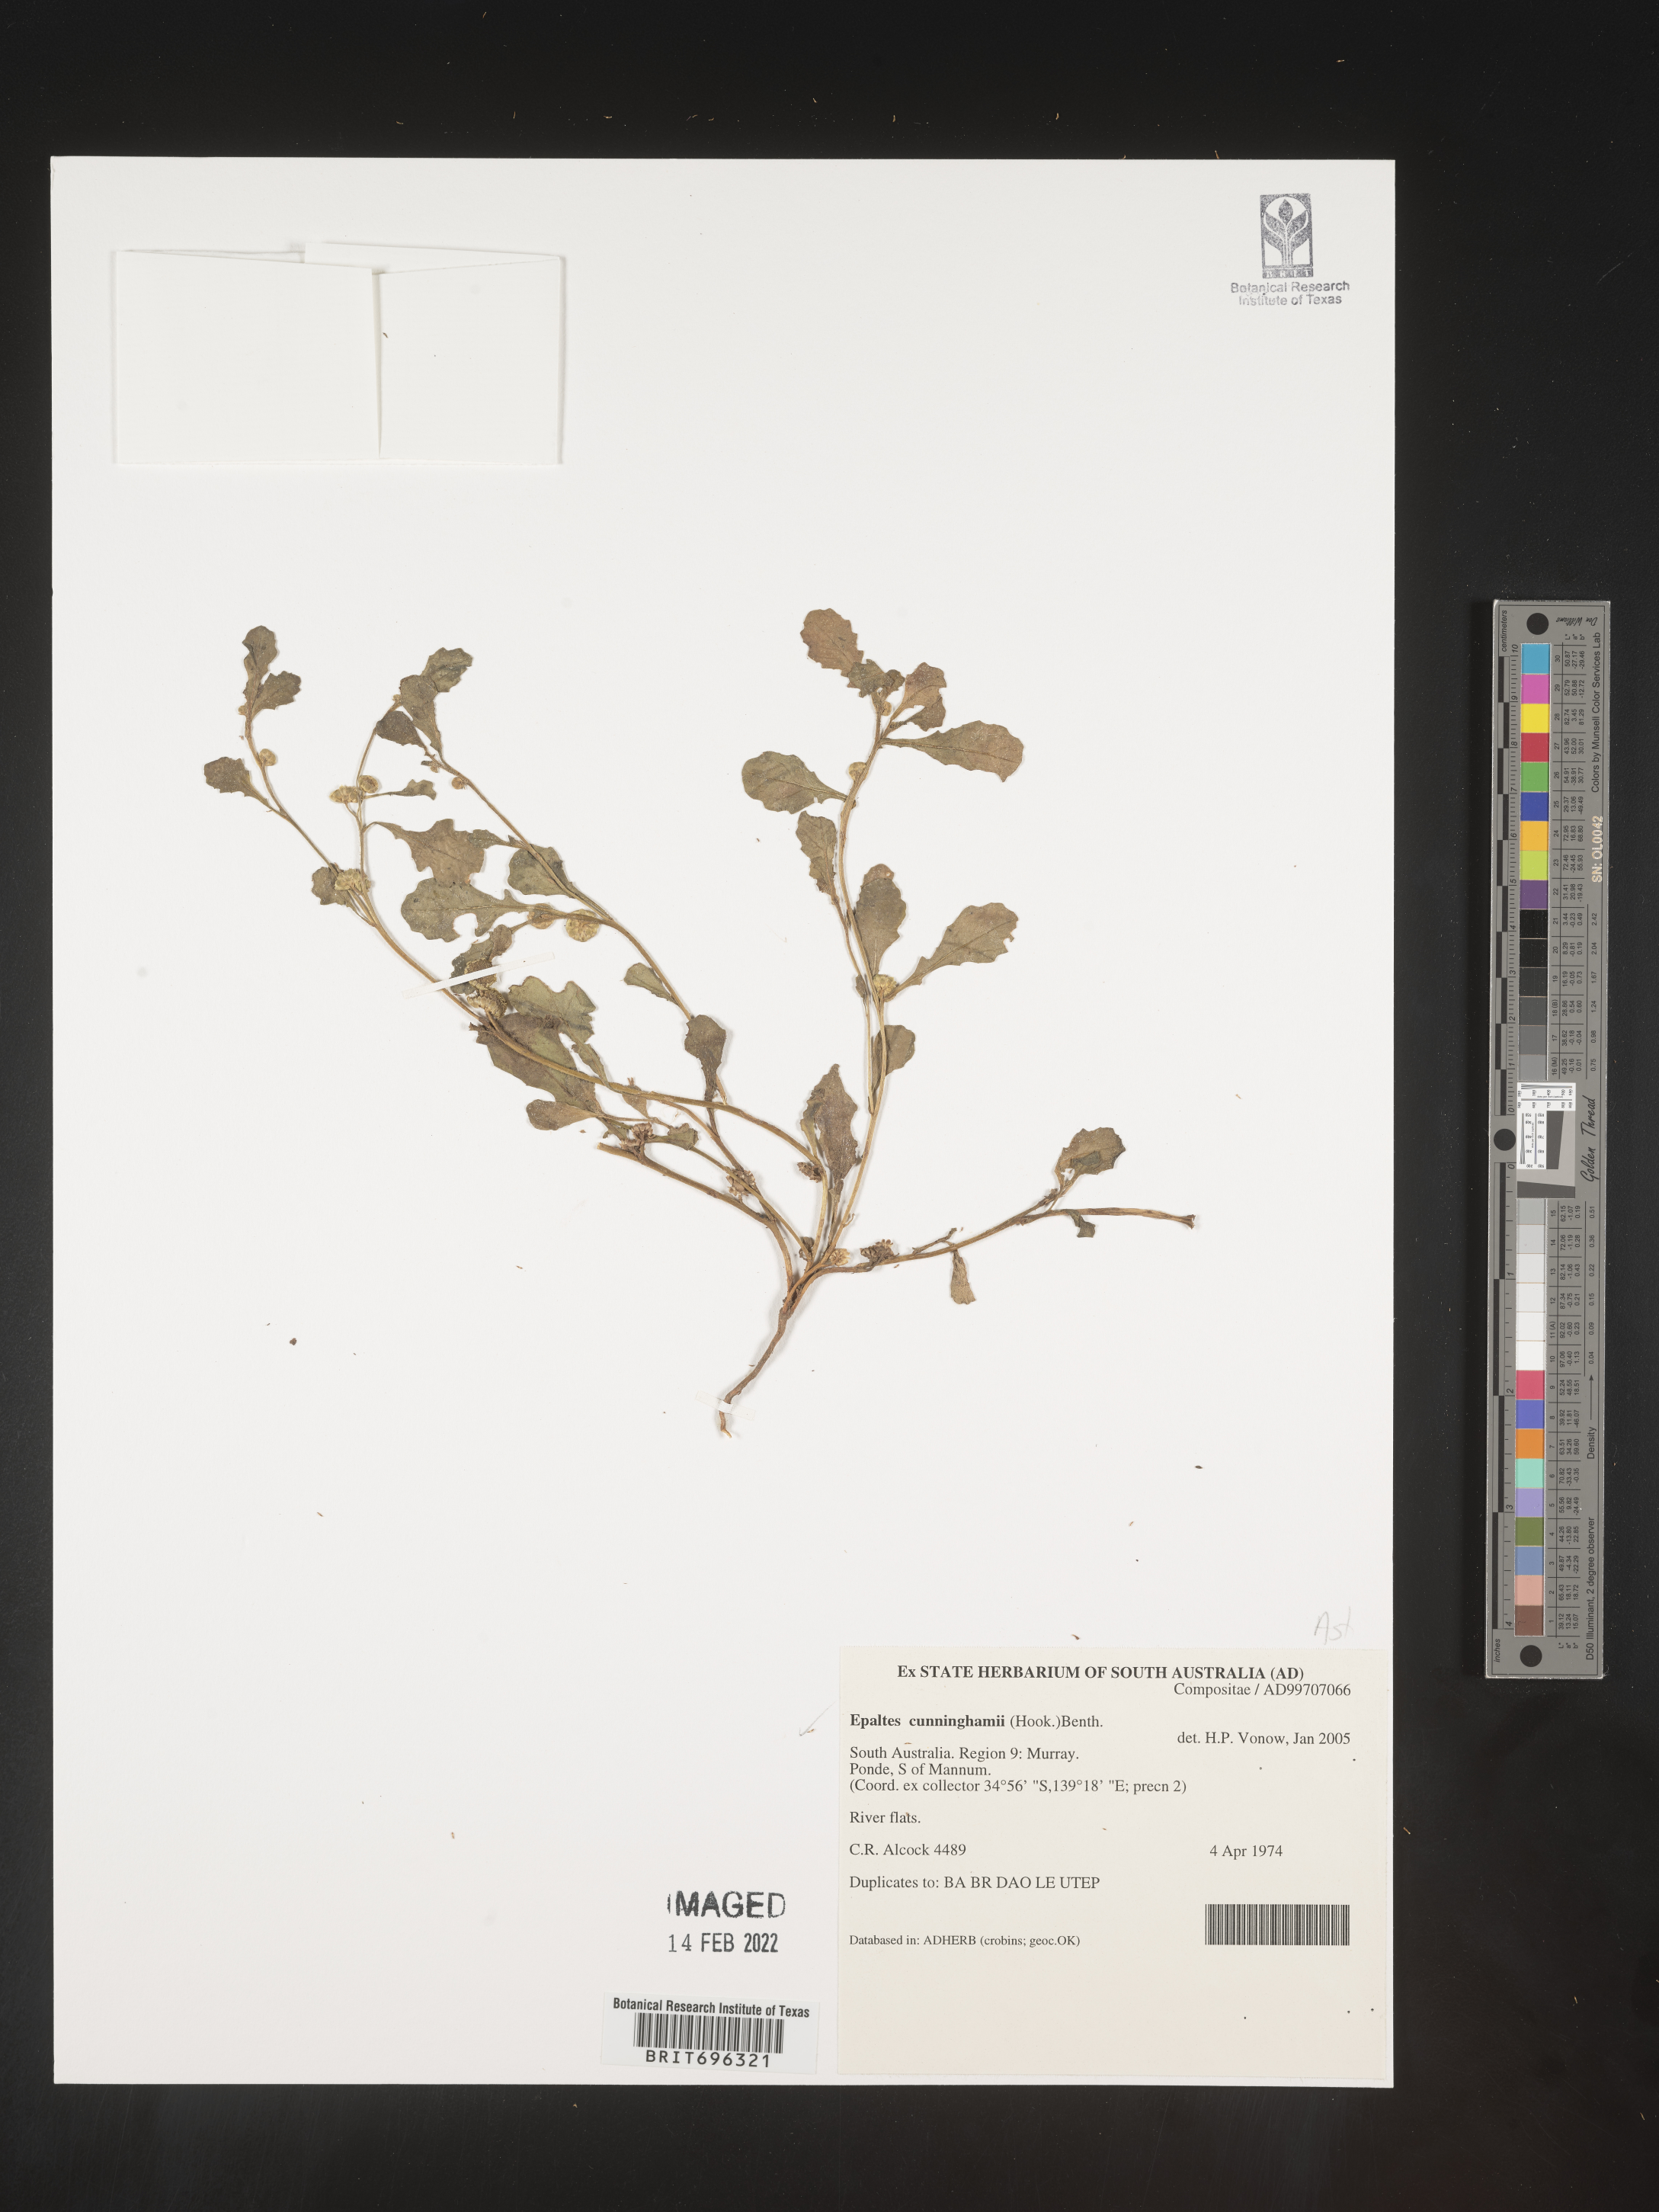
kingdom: Plantae
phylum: Tracheophyta
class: Magnoliopsida
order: Asterales
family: Asteraceae
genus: Epaltes
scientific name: Epaltes
